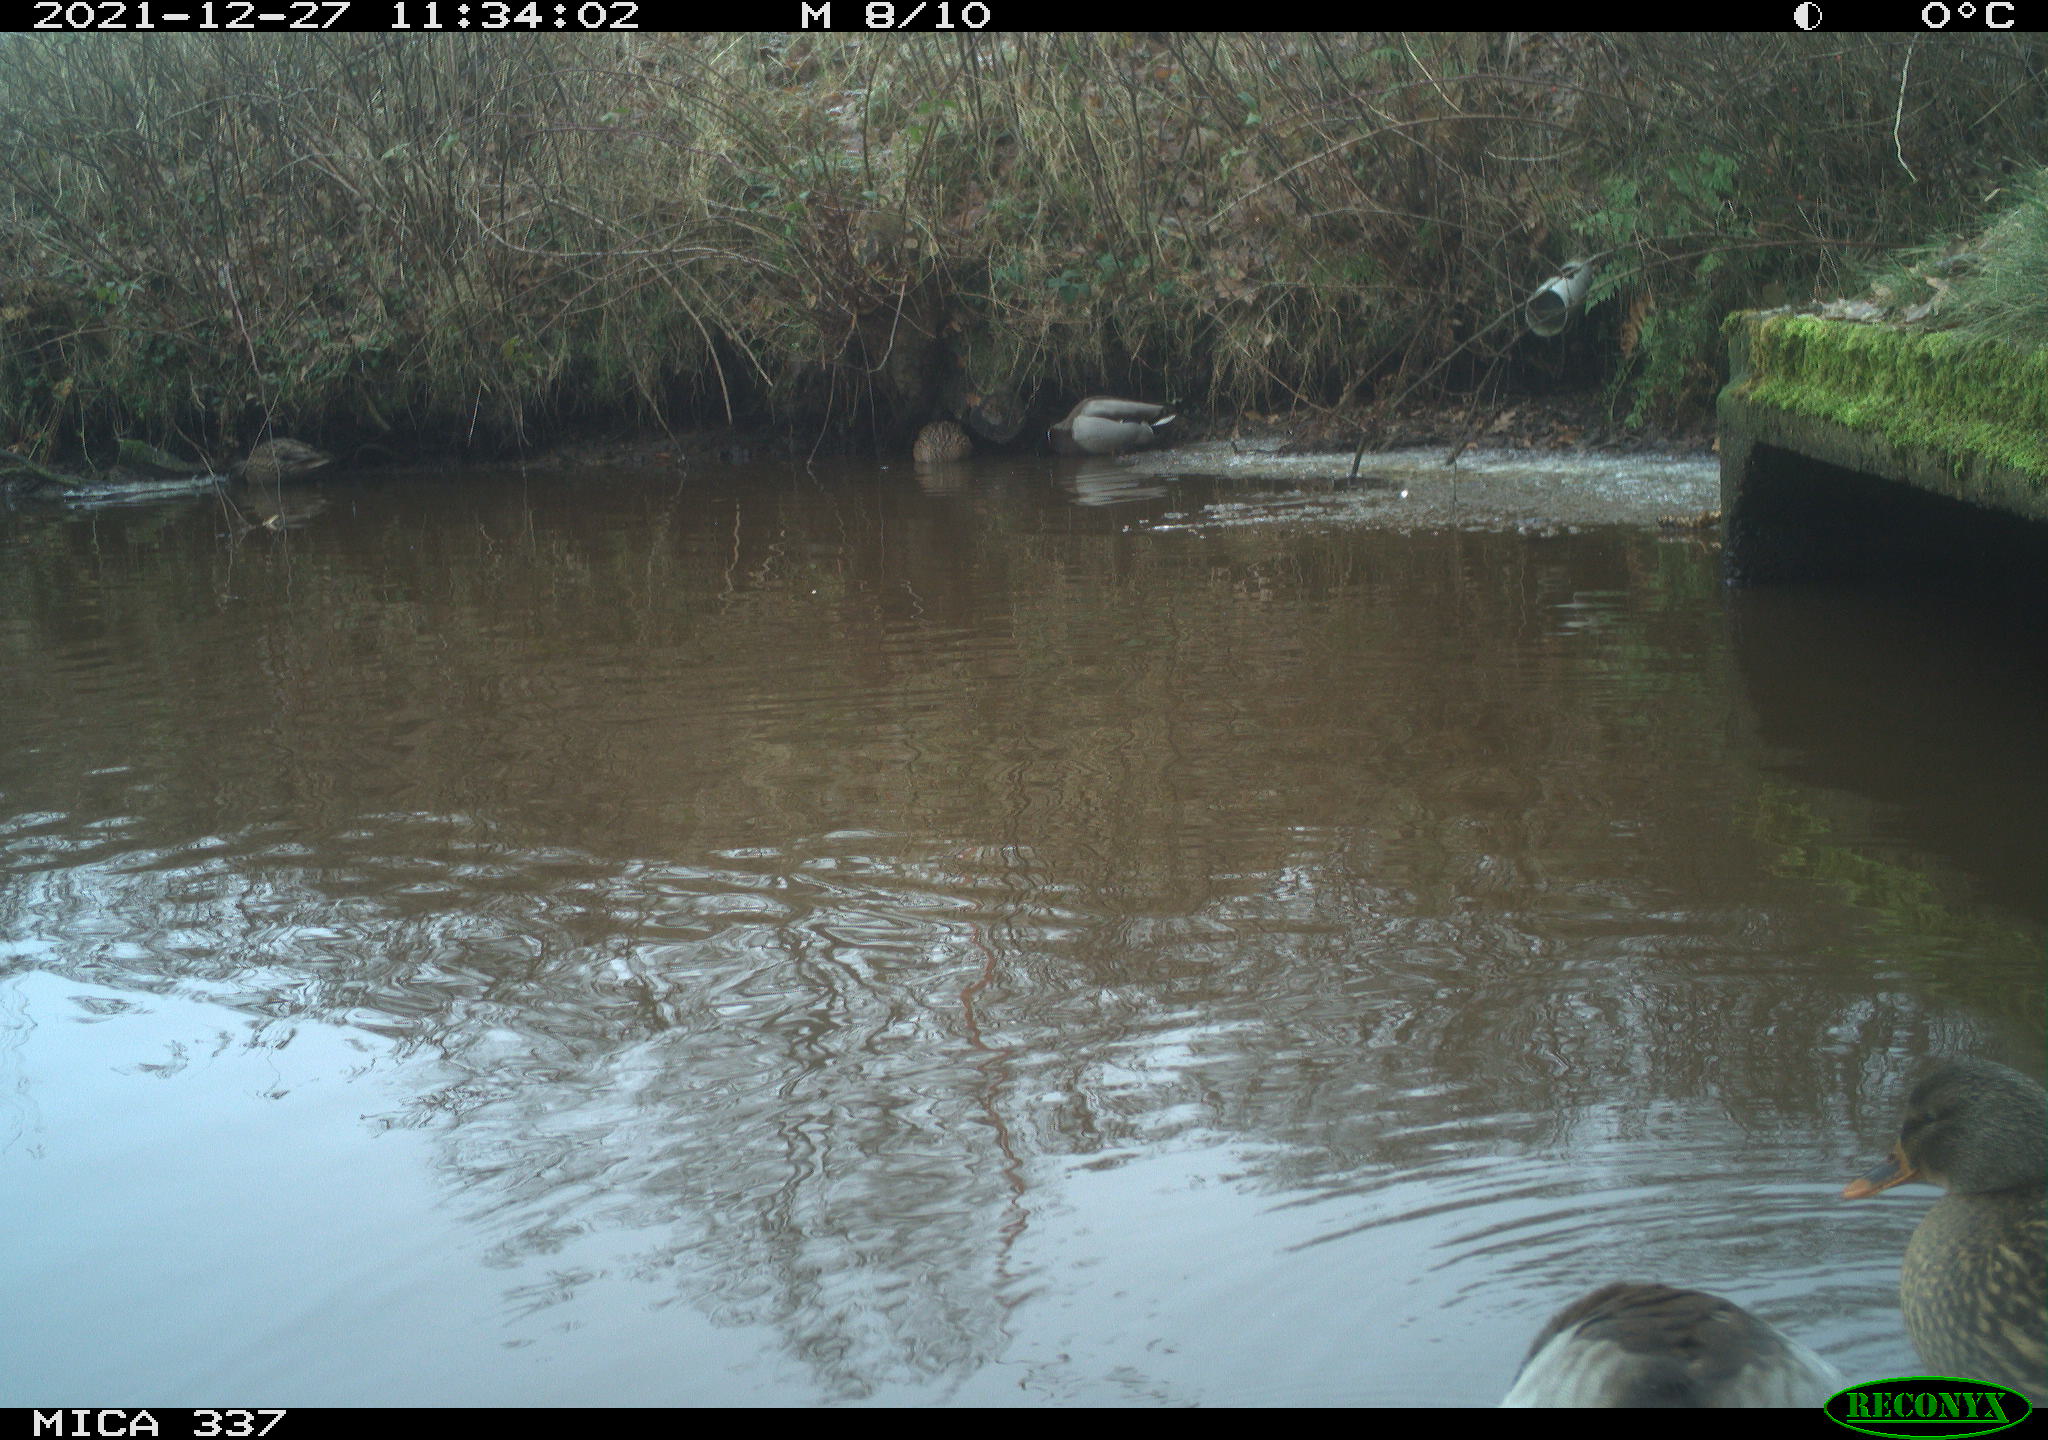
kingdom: Animalia
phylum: Chordata
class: Aves
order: Anseriformes
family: Anatidae
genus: Anas
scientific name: Anas platyrhynchos
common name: Mallard
